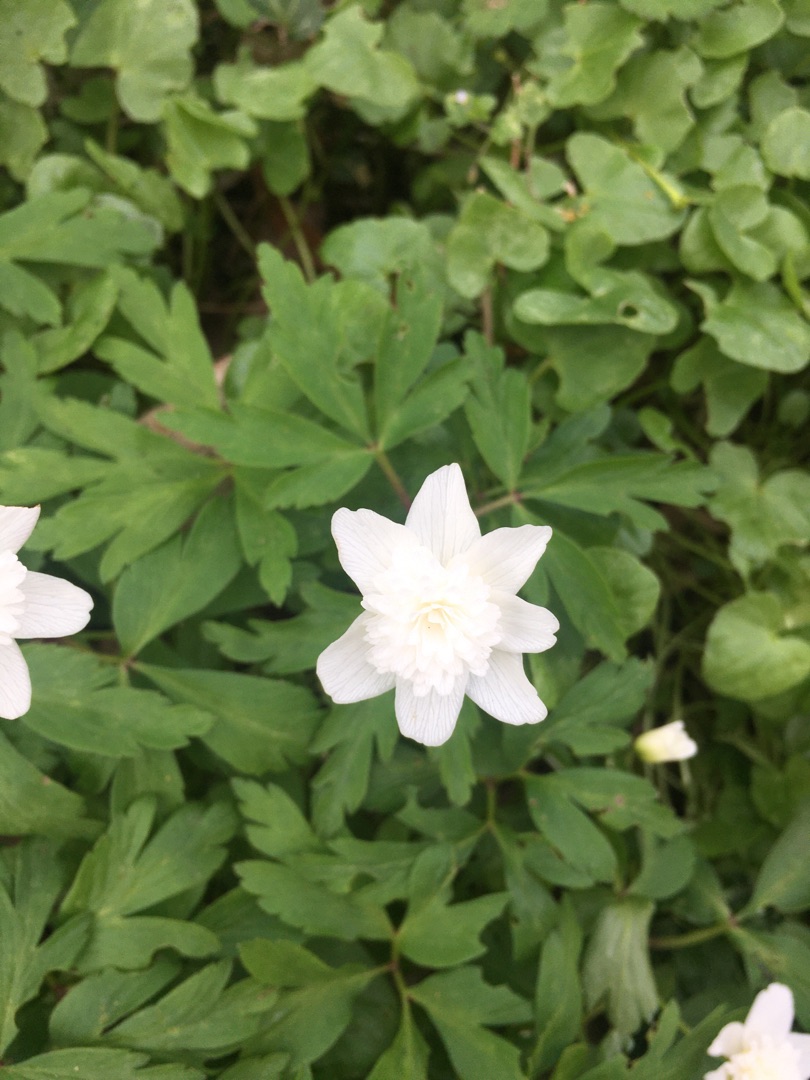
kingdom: Plantae
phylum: Tracheophyta
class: Magnoliopsida
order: Ranunculales
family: Ranunculaceae
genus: Anemone
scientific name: Anemone nemorosa
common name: Hvid anemone
